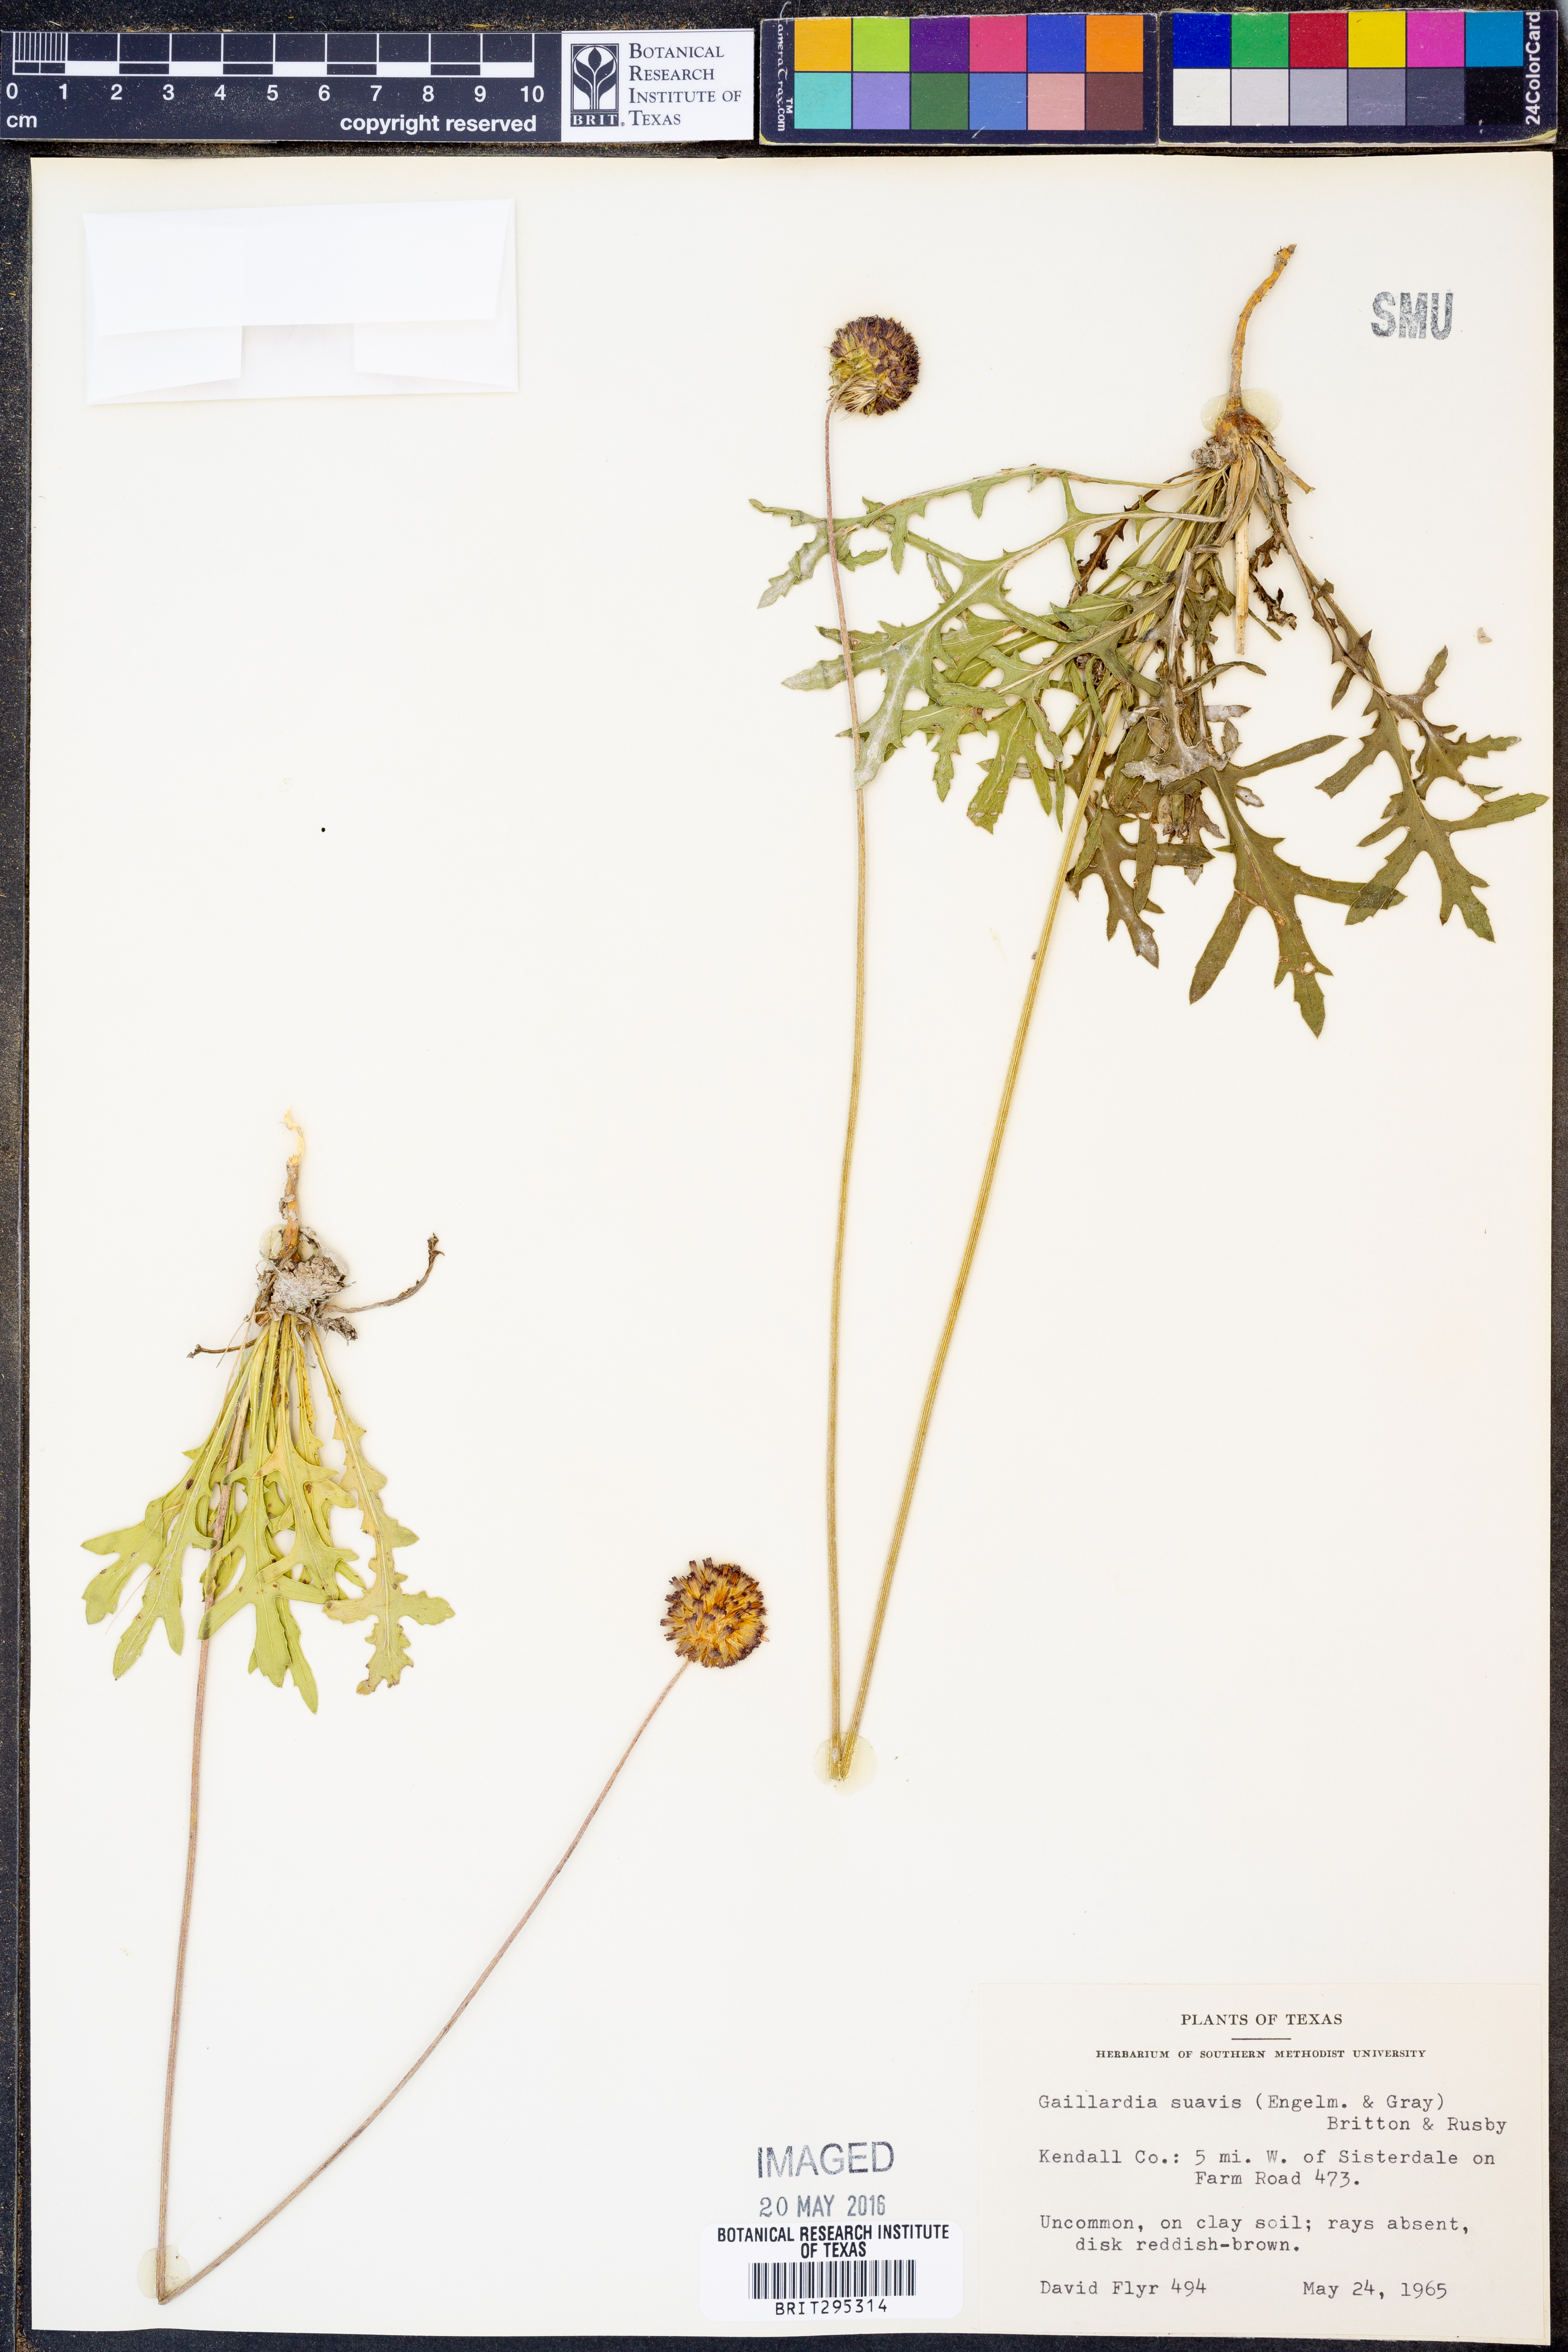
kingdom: Plantae
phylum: Tracheophyta
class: Magnoliopsida
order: Asterales
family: Asteraceae
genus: Gaillardia
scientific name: Gaillardia suavis
